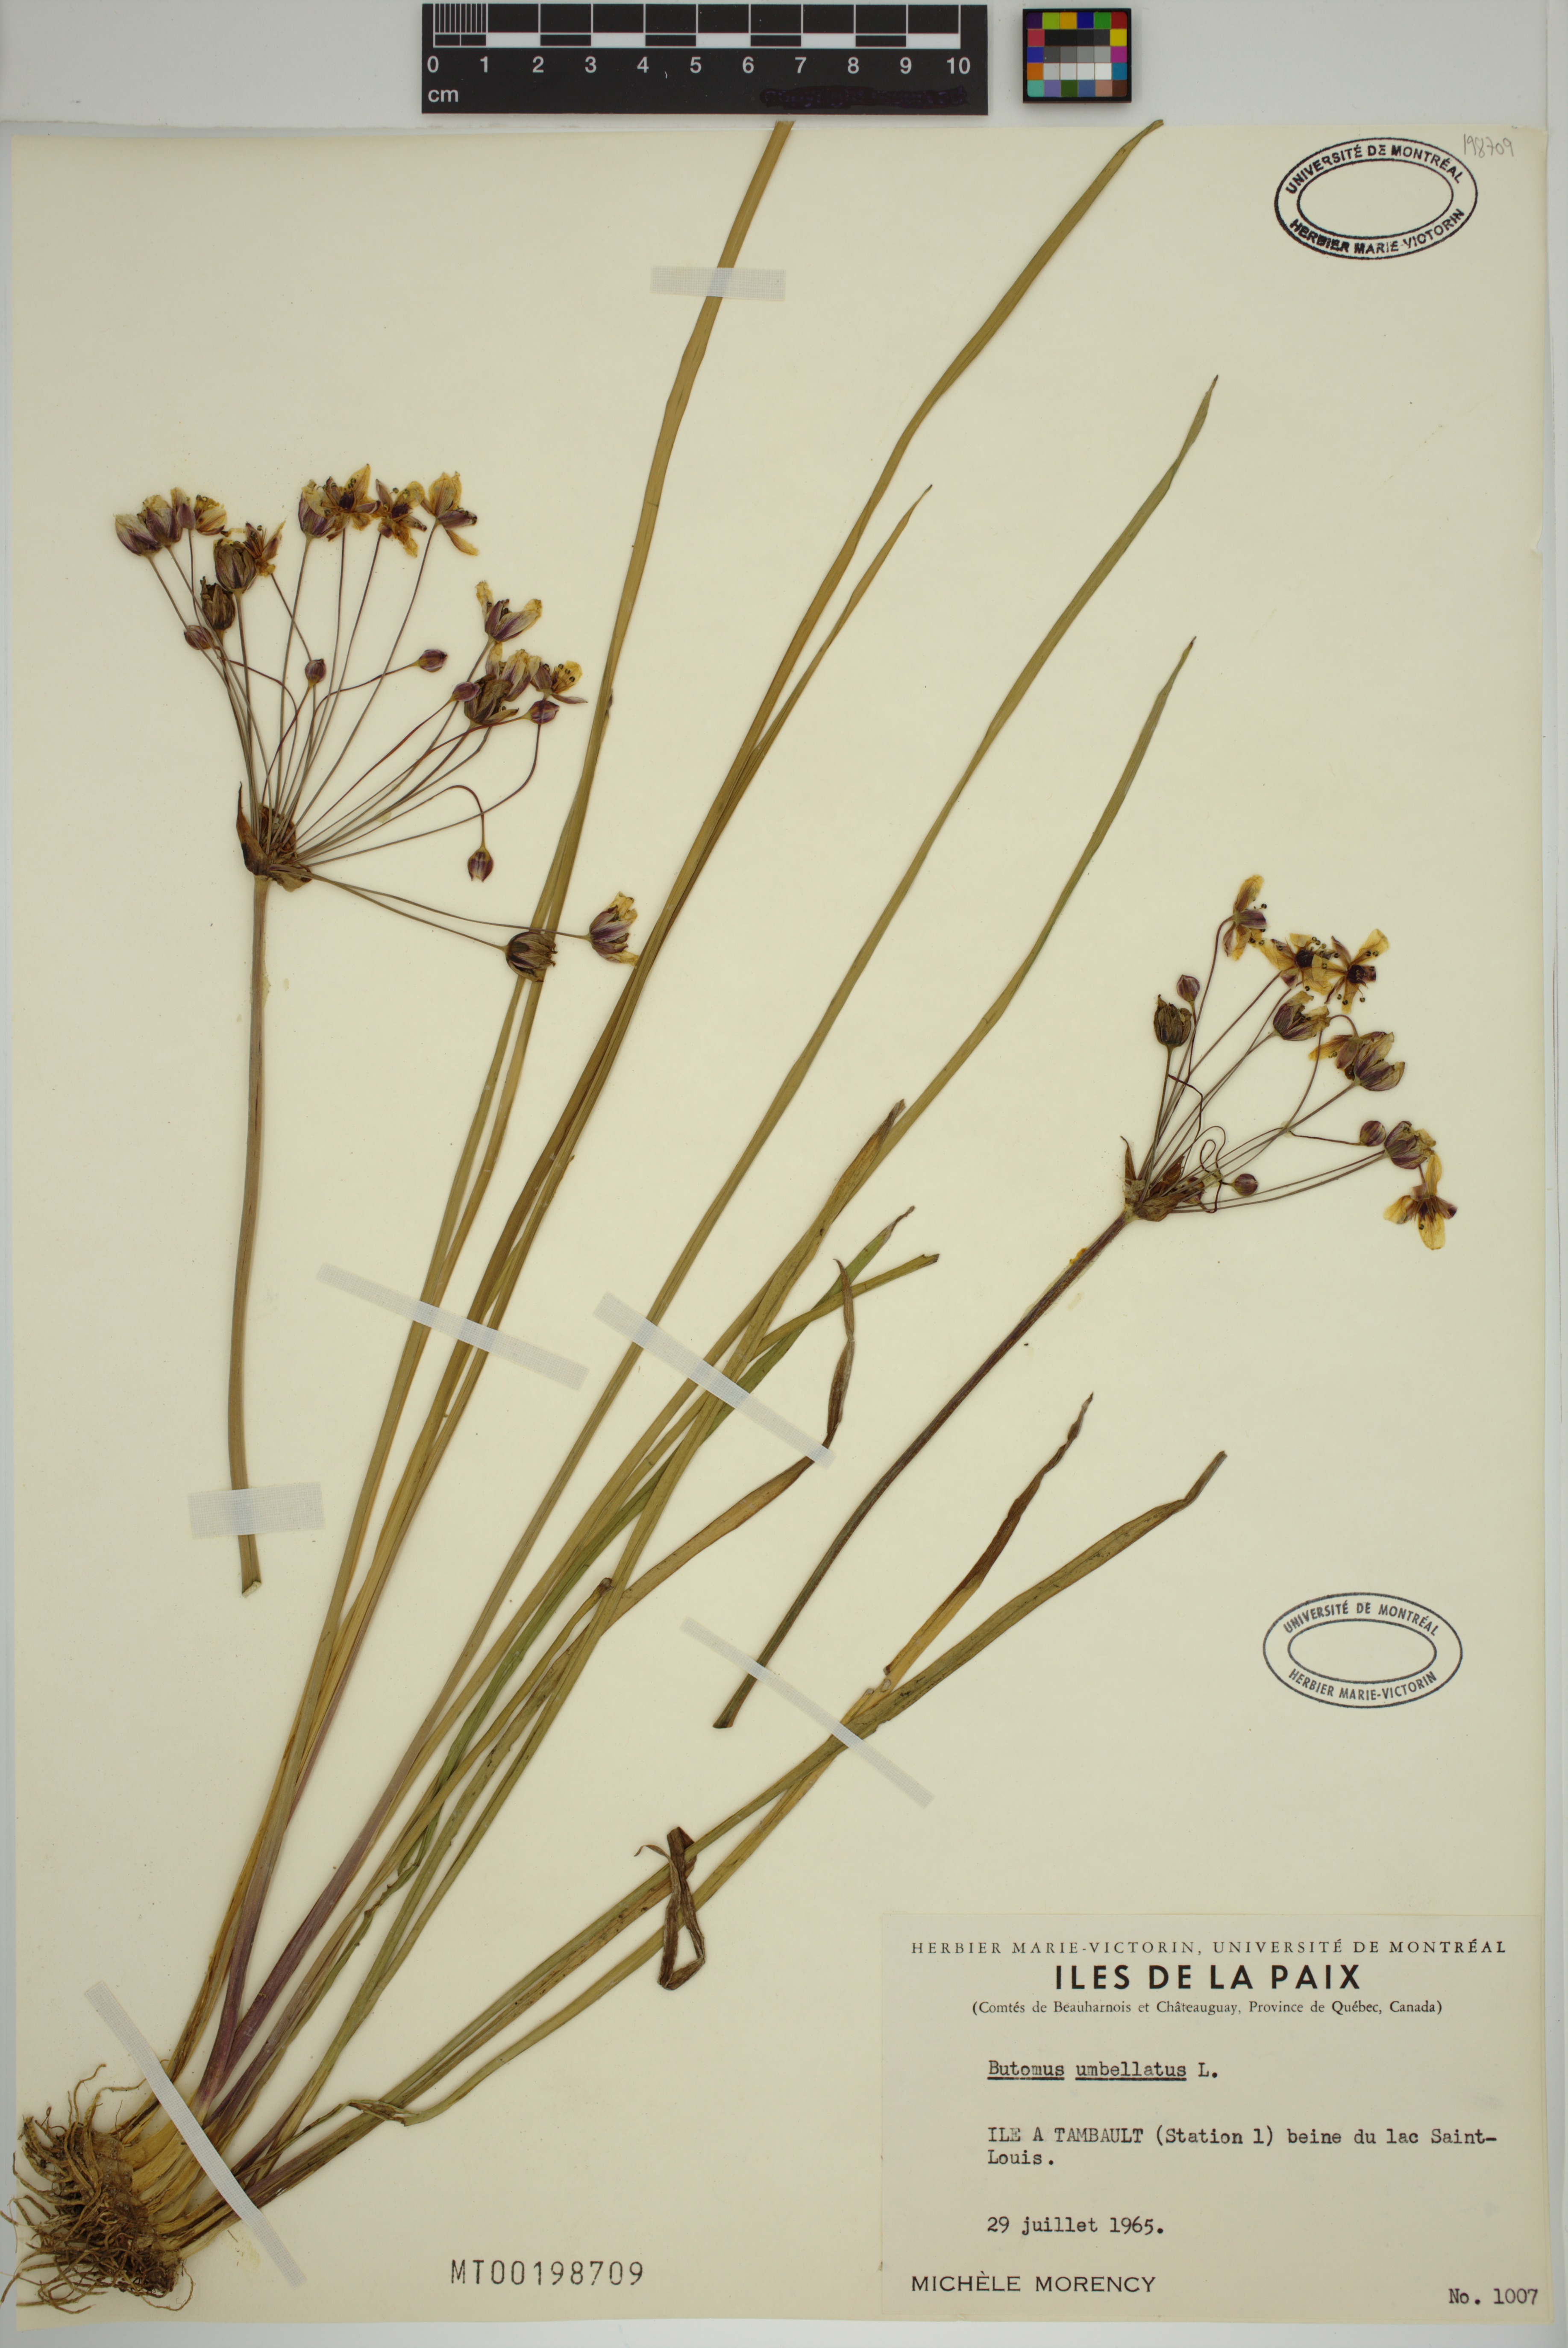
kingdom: Plantae
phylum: Tracheophyta
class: Liliopsida
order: Alismatales
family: Butomaceae
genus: Butomus
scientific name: Butomus umbellatus
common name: Flowering-rush
